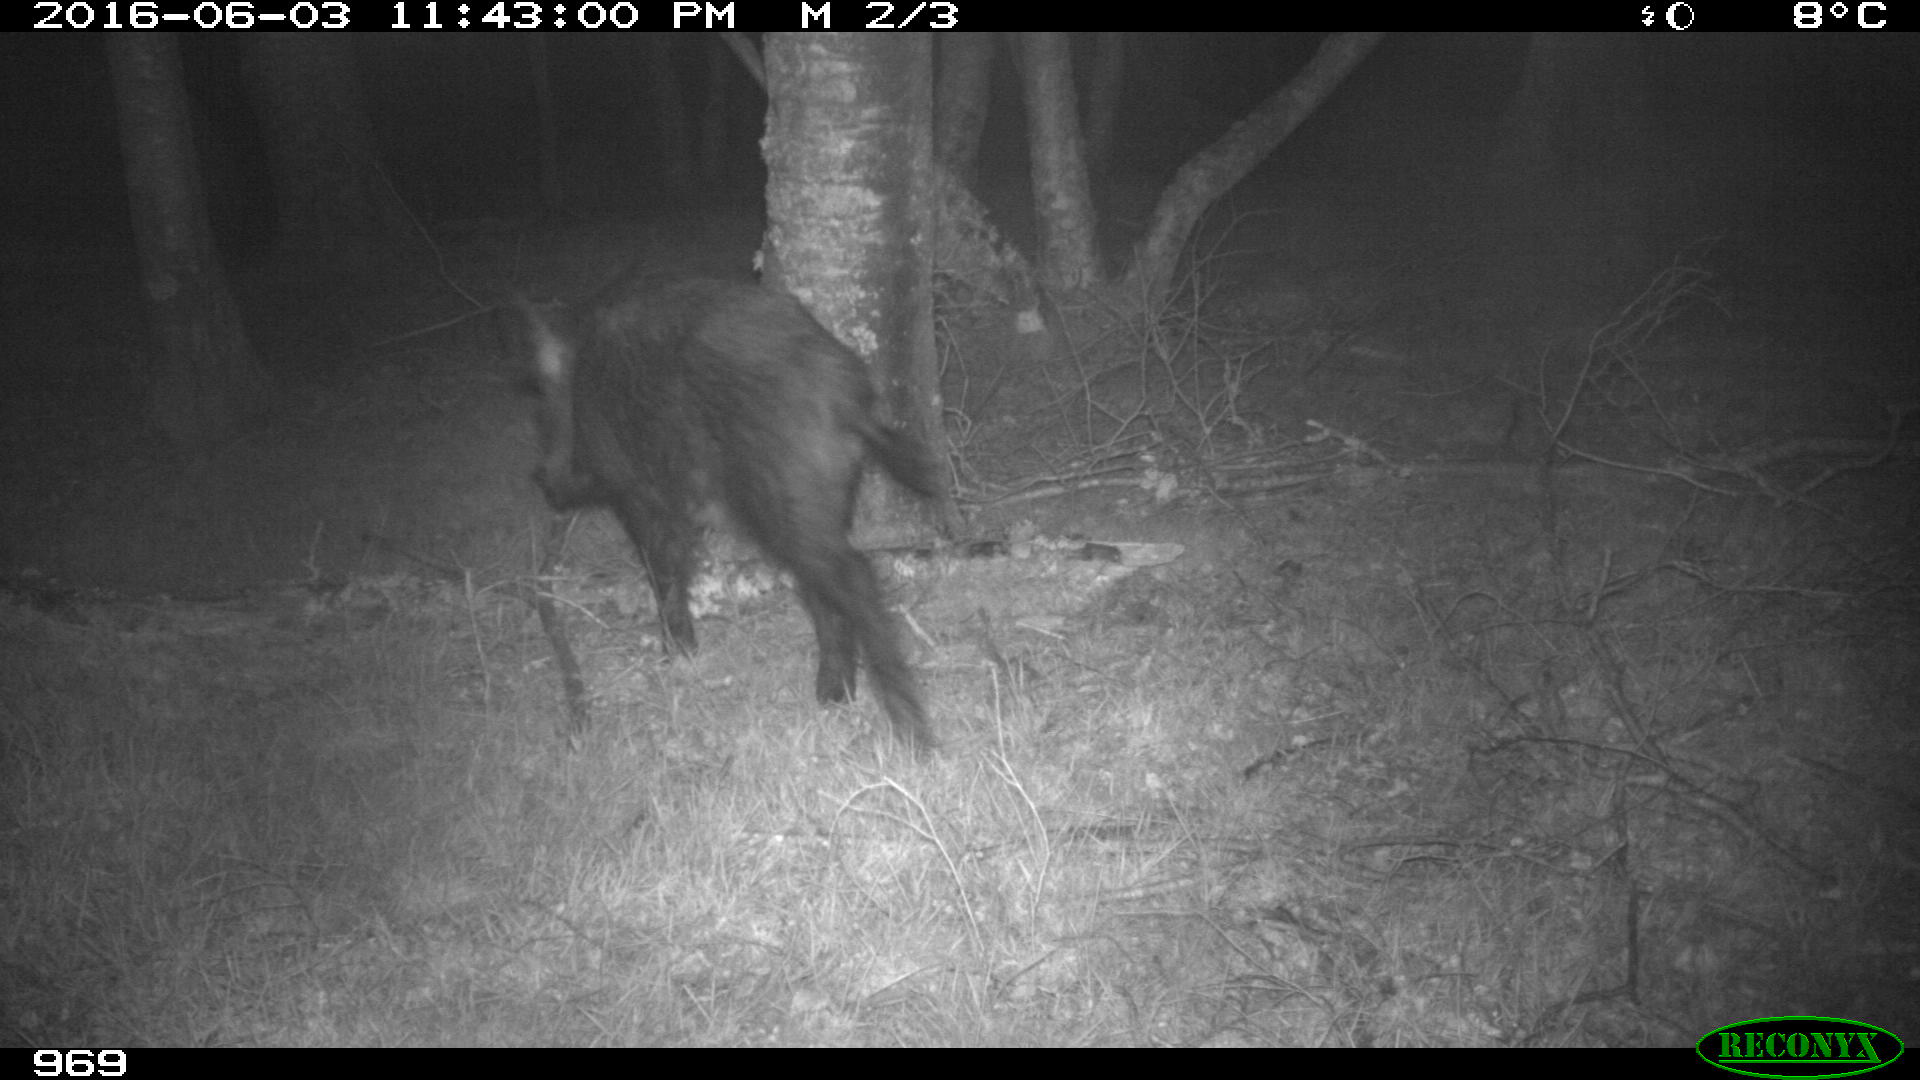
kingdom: Animalia
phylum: Chordata
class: Mammalia
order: Artiodactyla
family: Suidae
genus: Sus
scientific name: Sus scrofa
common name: Wild boar
